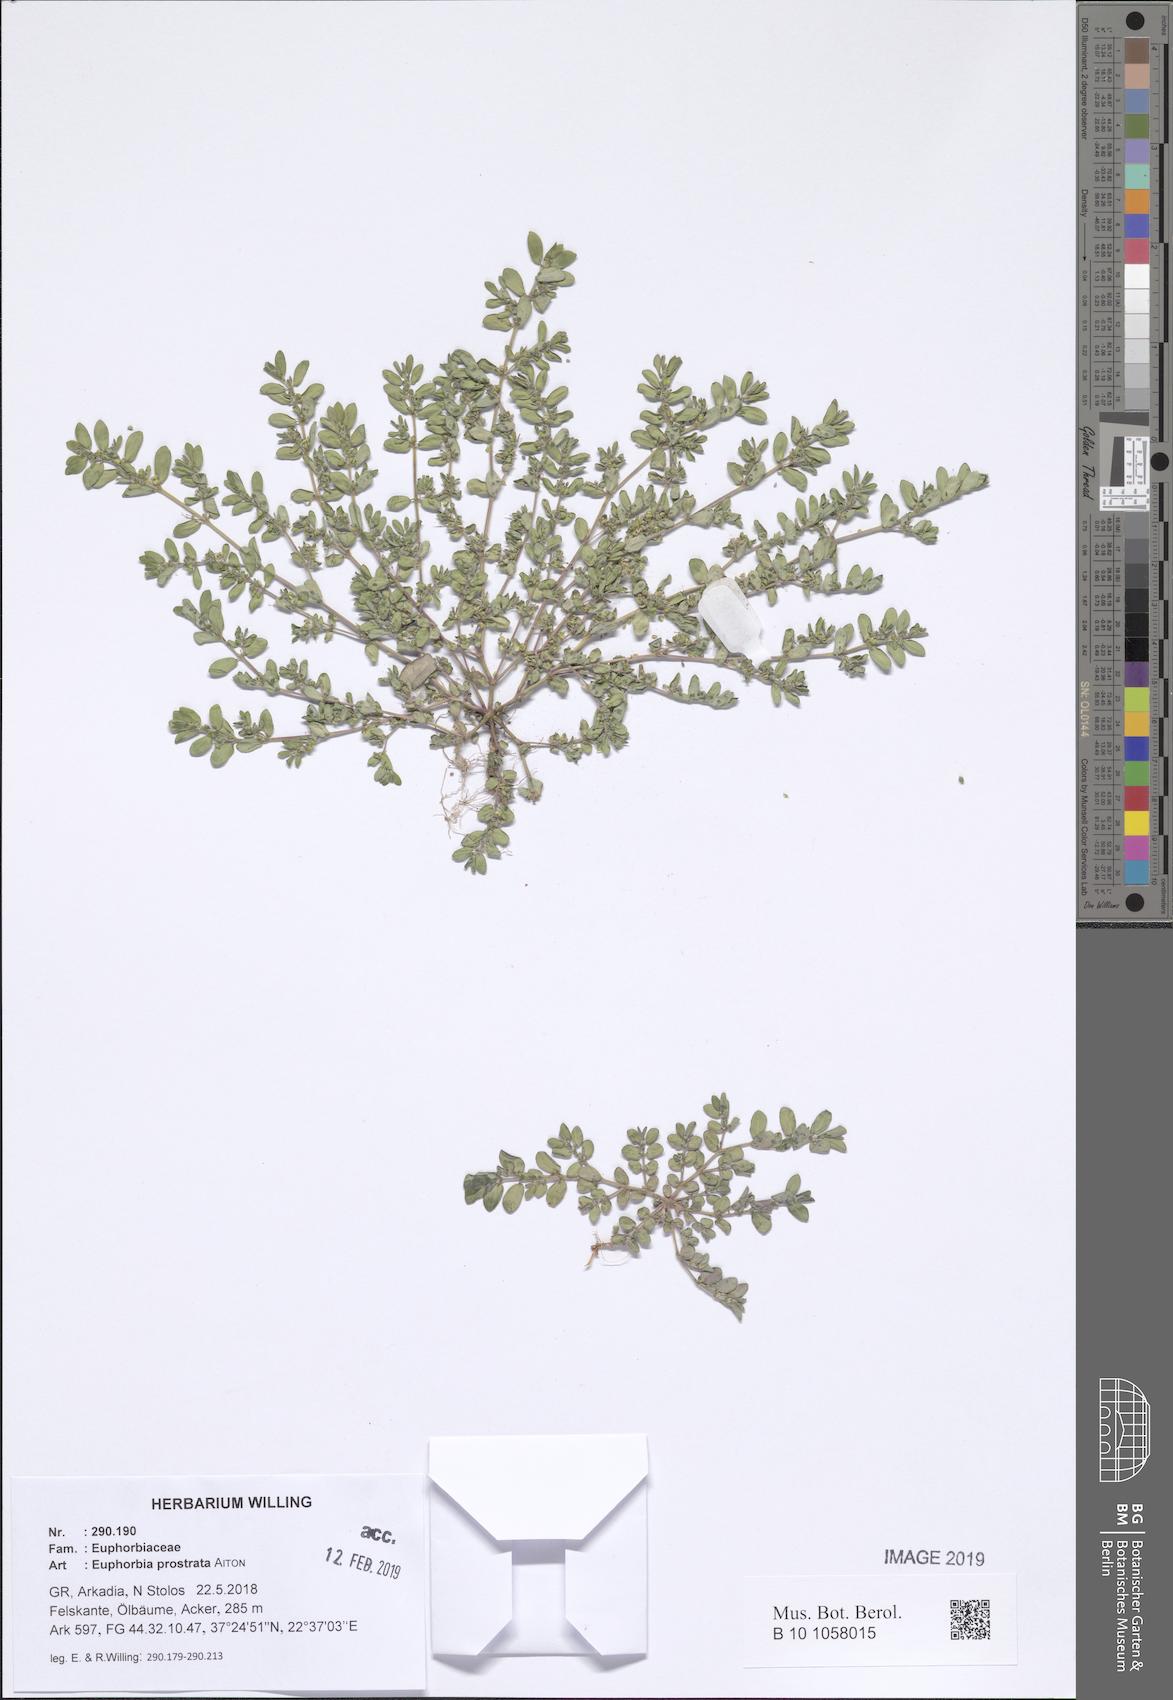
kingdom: Plantae
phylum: Tracheophyta
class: Magnoliopsida
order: Malpighiales
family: Euphorbiaceae
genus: Euphorbia
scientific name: Euphorbia prostrata
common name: Prostrate sandmat
